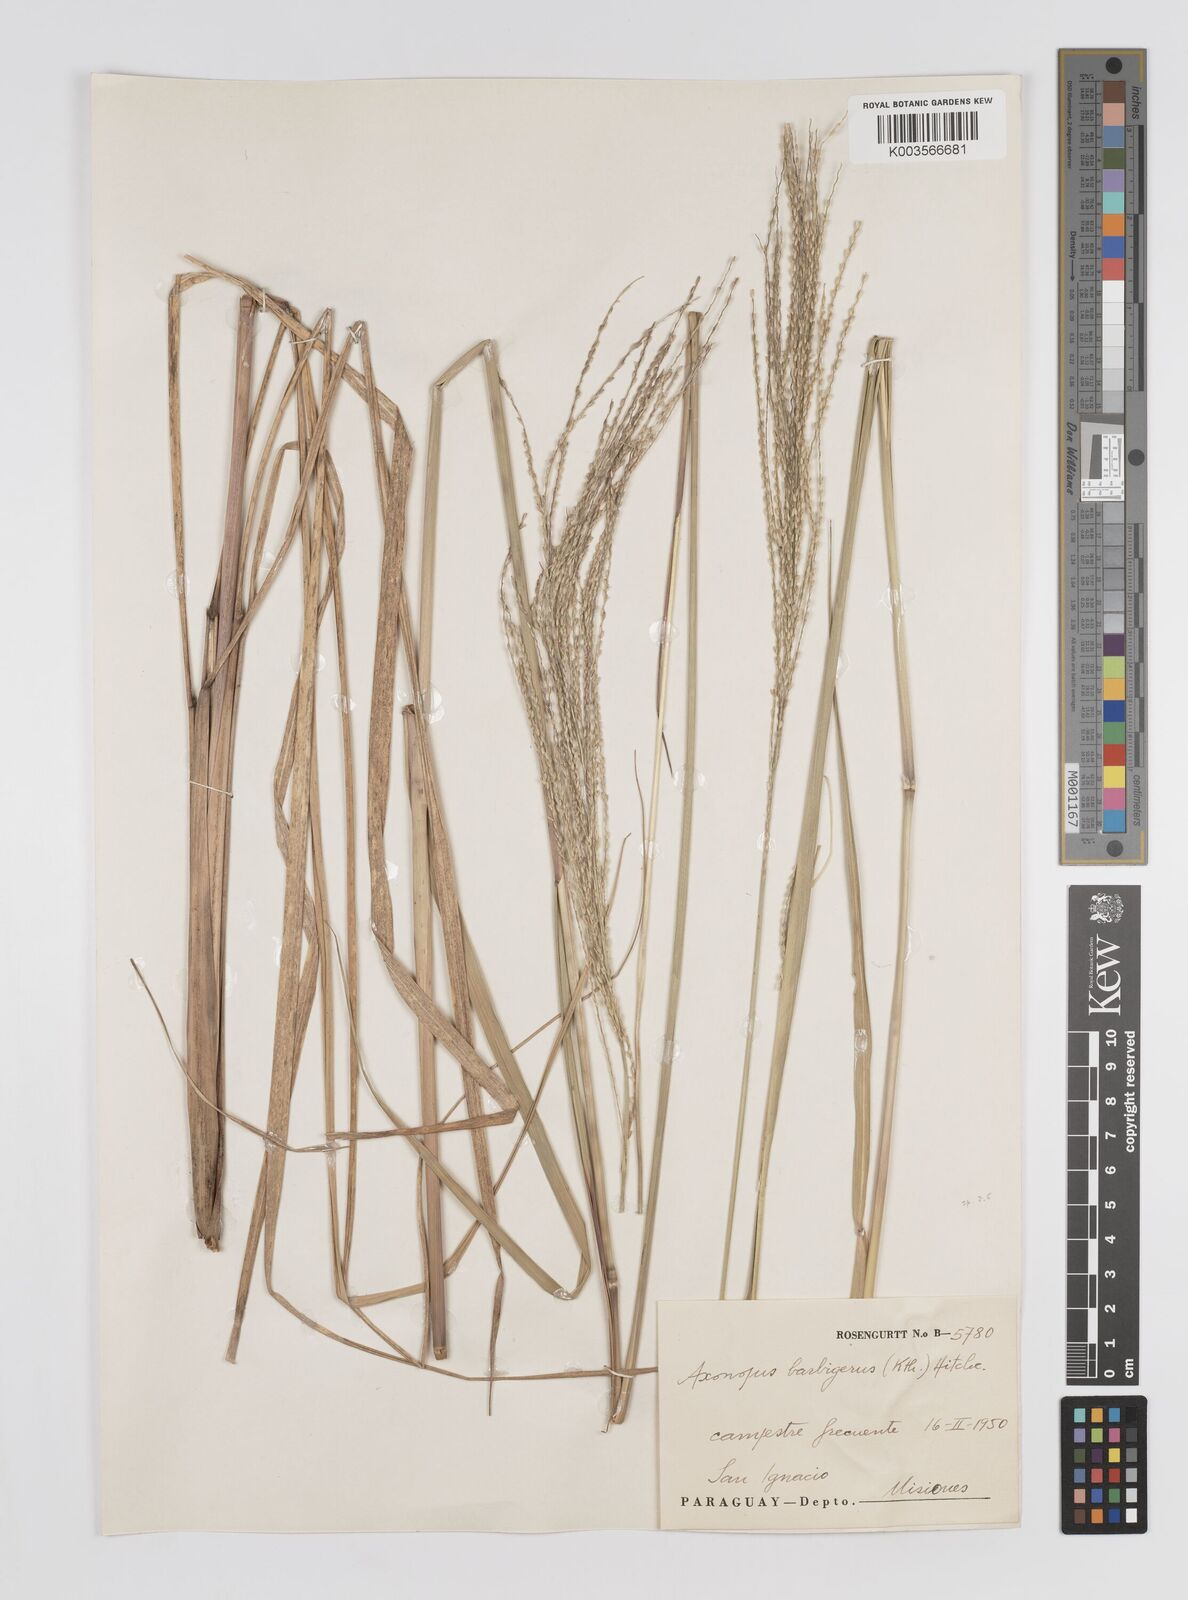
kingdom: Plantae
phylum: Tracheophyta
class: Liliopsida
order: Poales
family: Poaceae
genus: Axonopus
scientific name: Axonopus siccus
